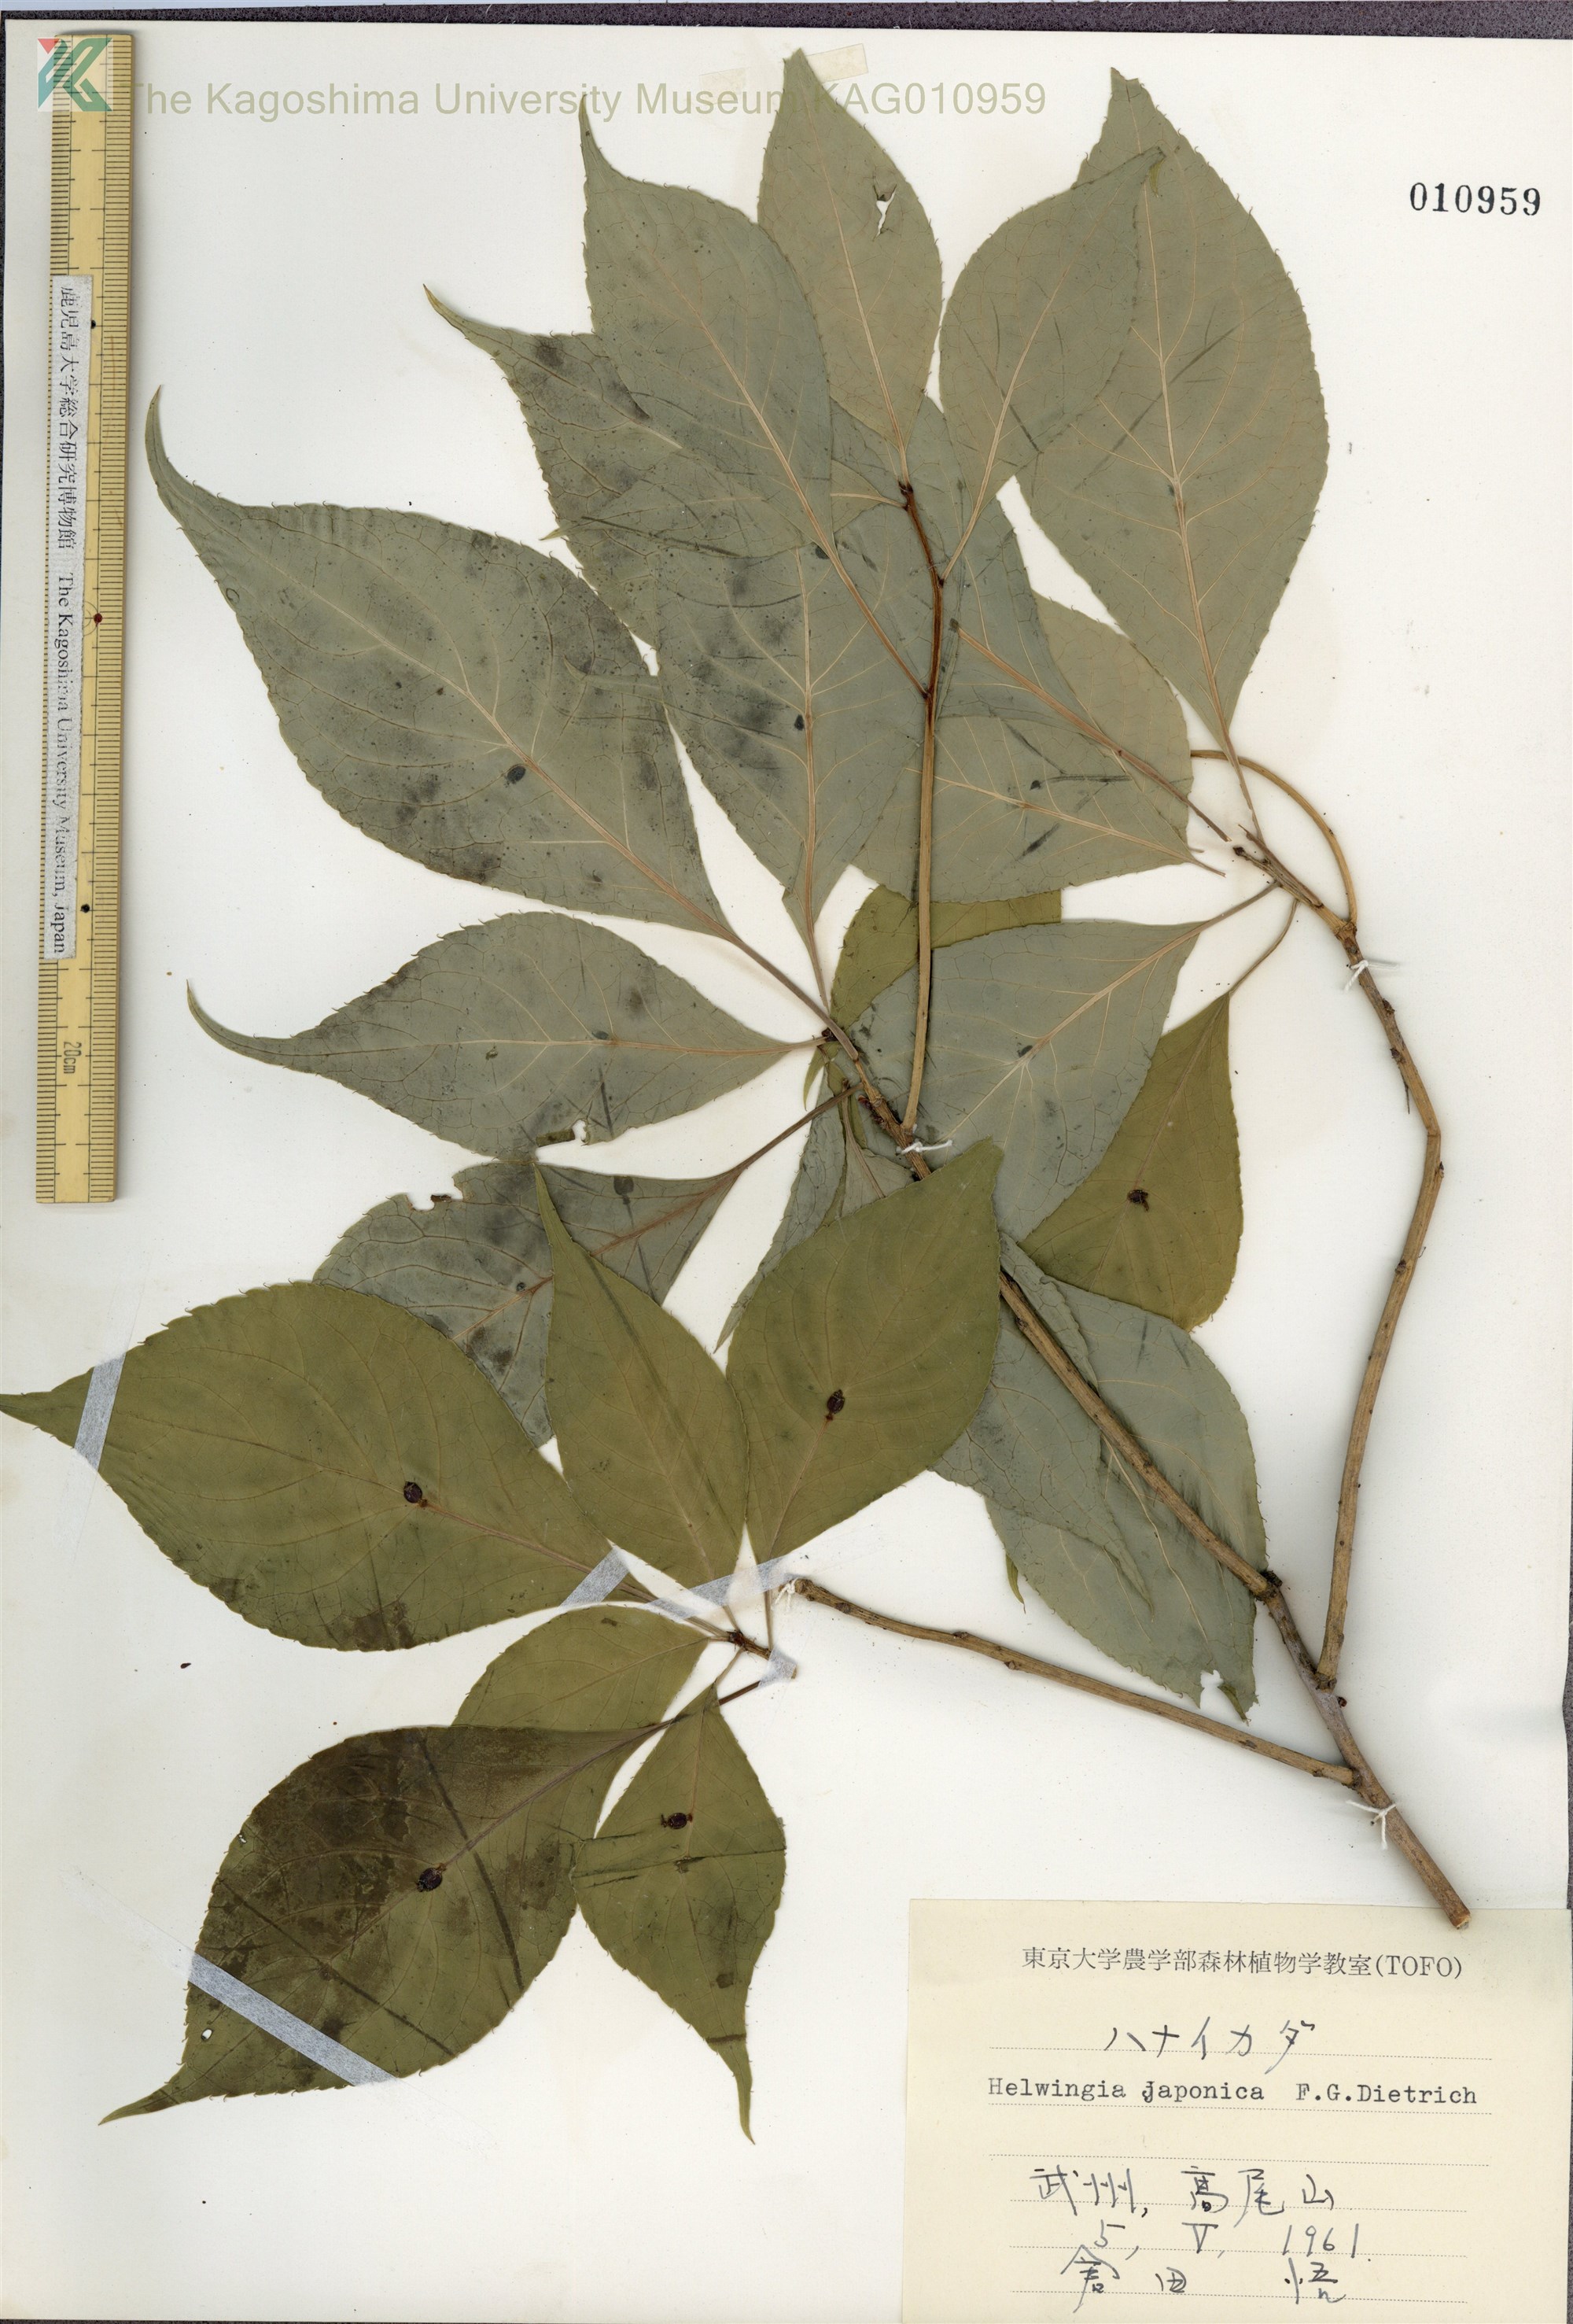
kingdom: Plantae
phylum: Tracheophyta
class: Magnoliopsida
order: Aquifoliales
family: Helwingiaceae
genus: Helwingia
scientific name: Helwingia japonica
